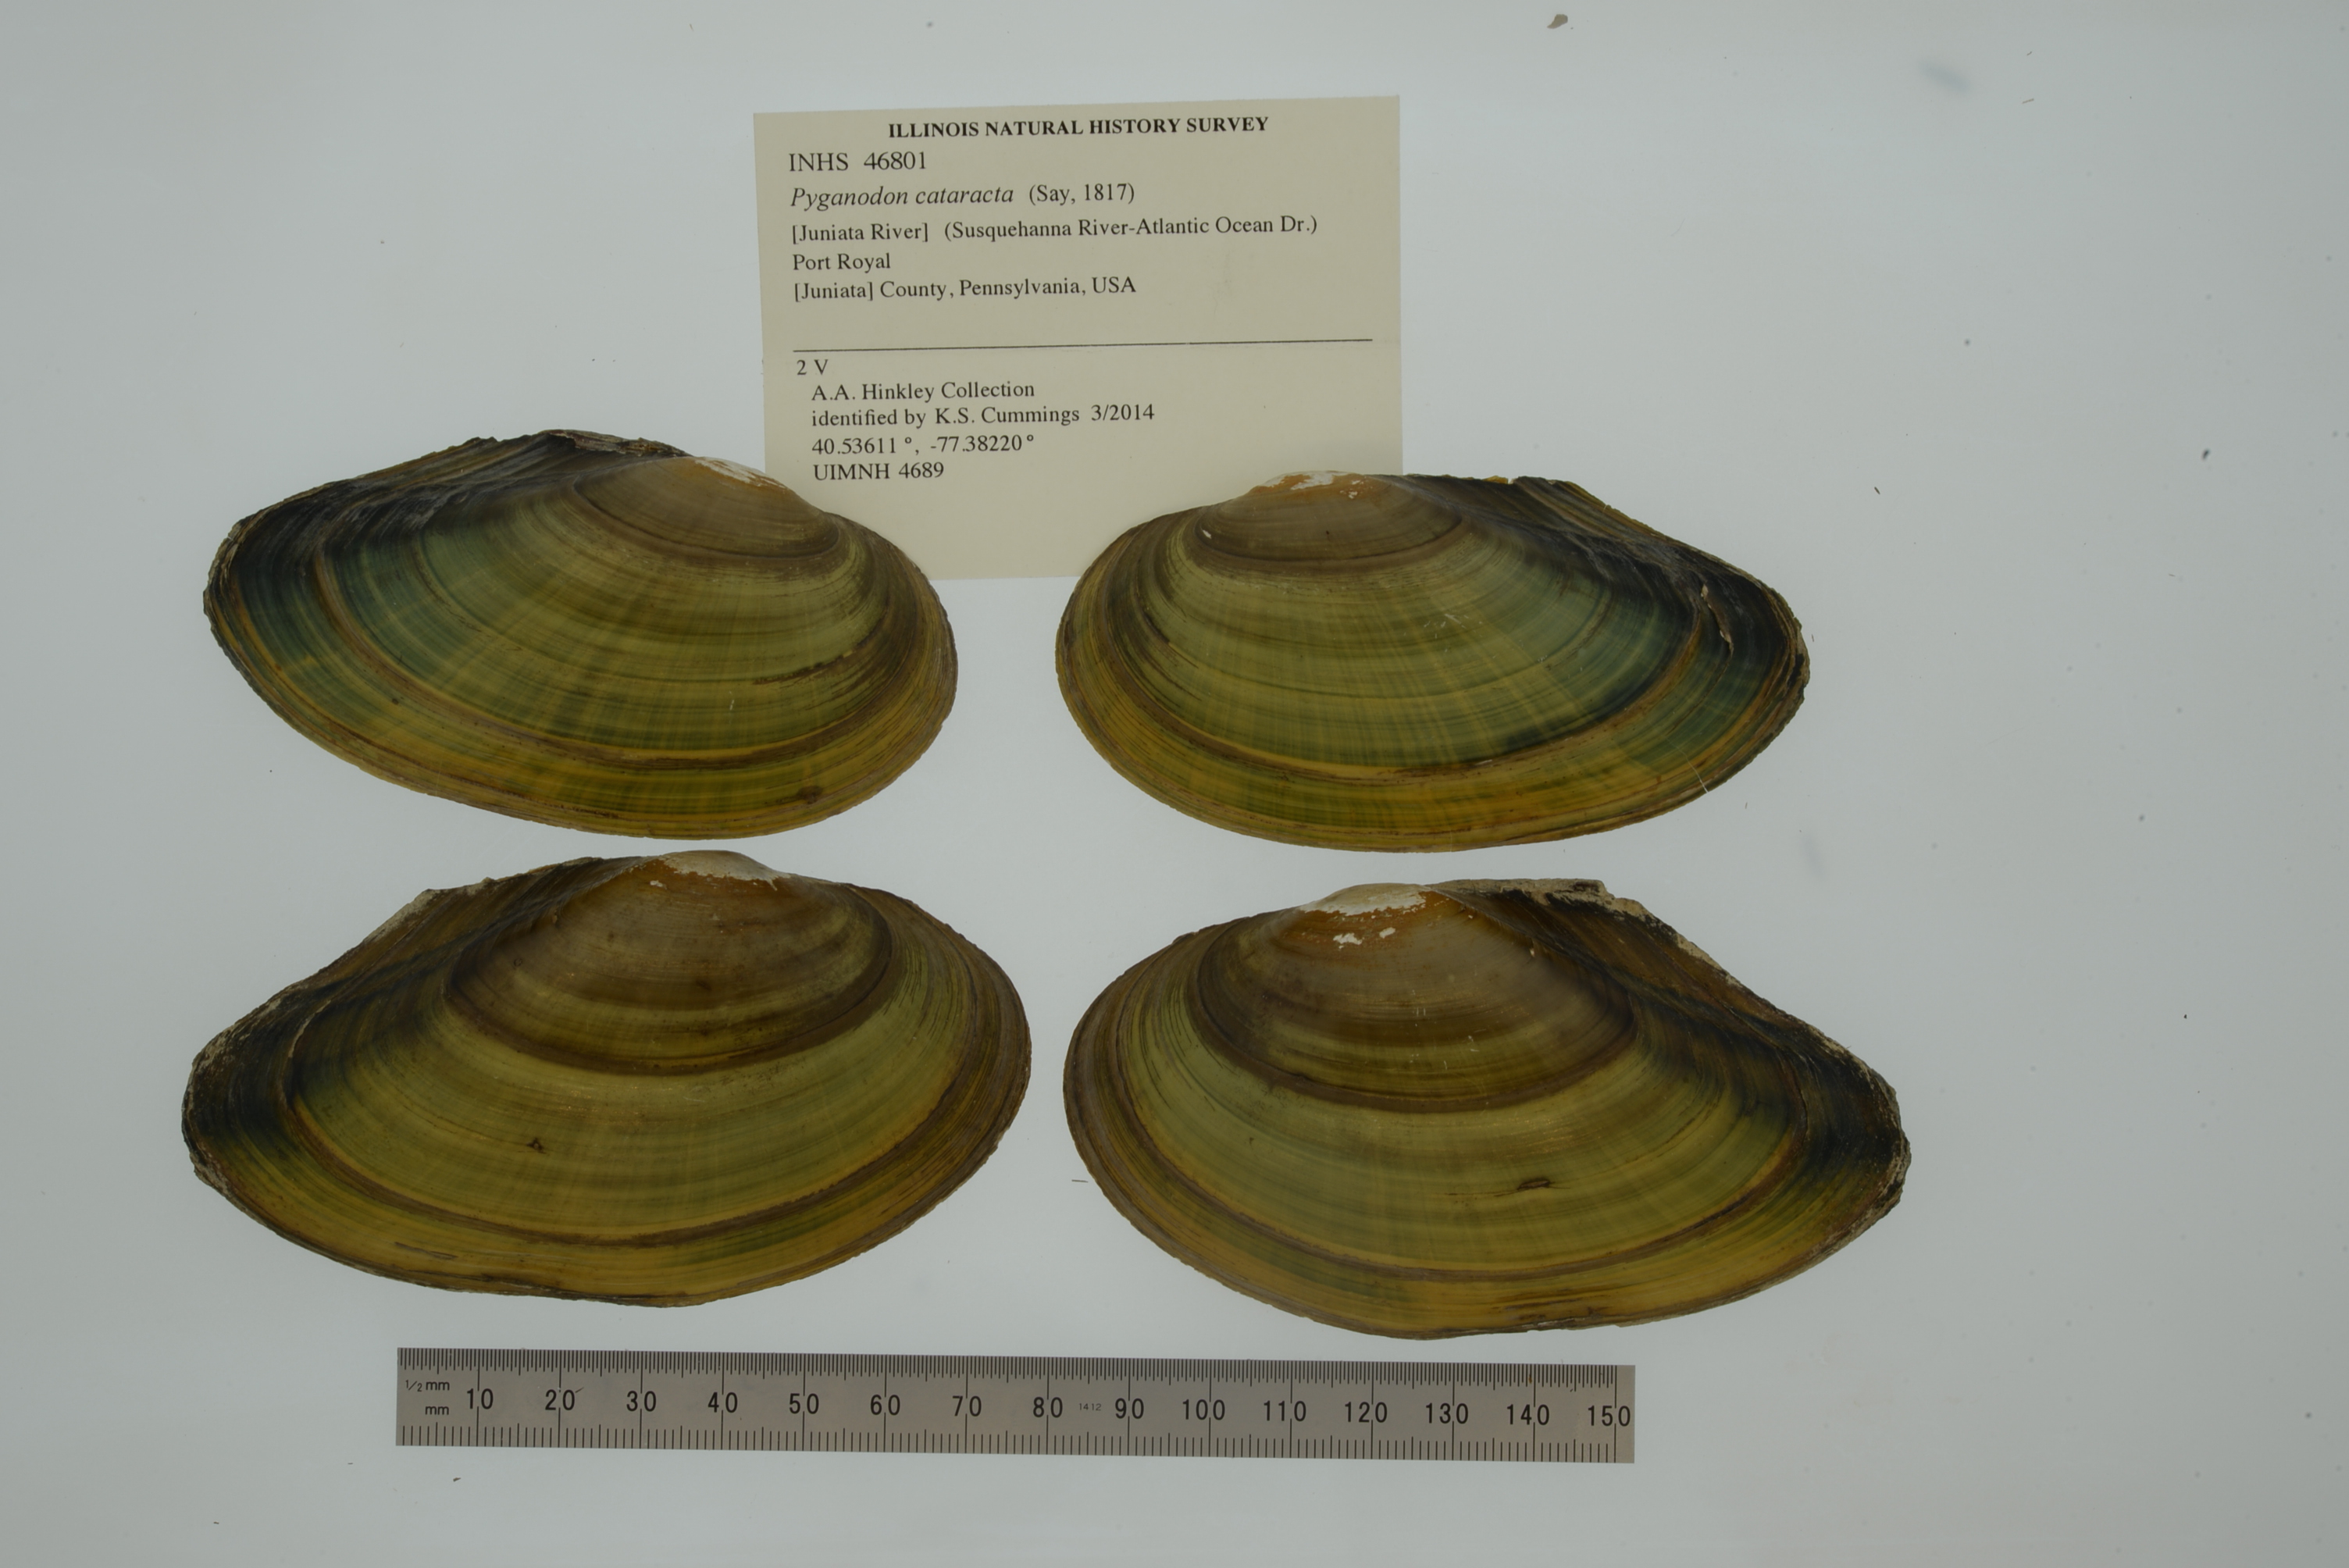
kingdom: Animalia
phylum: Mollusca
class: Bivalvia
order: Unionida
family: Unionidae
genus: Pyganodon
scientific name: Pyganodon cataracta
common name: Eastern floater
